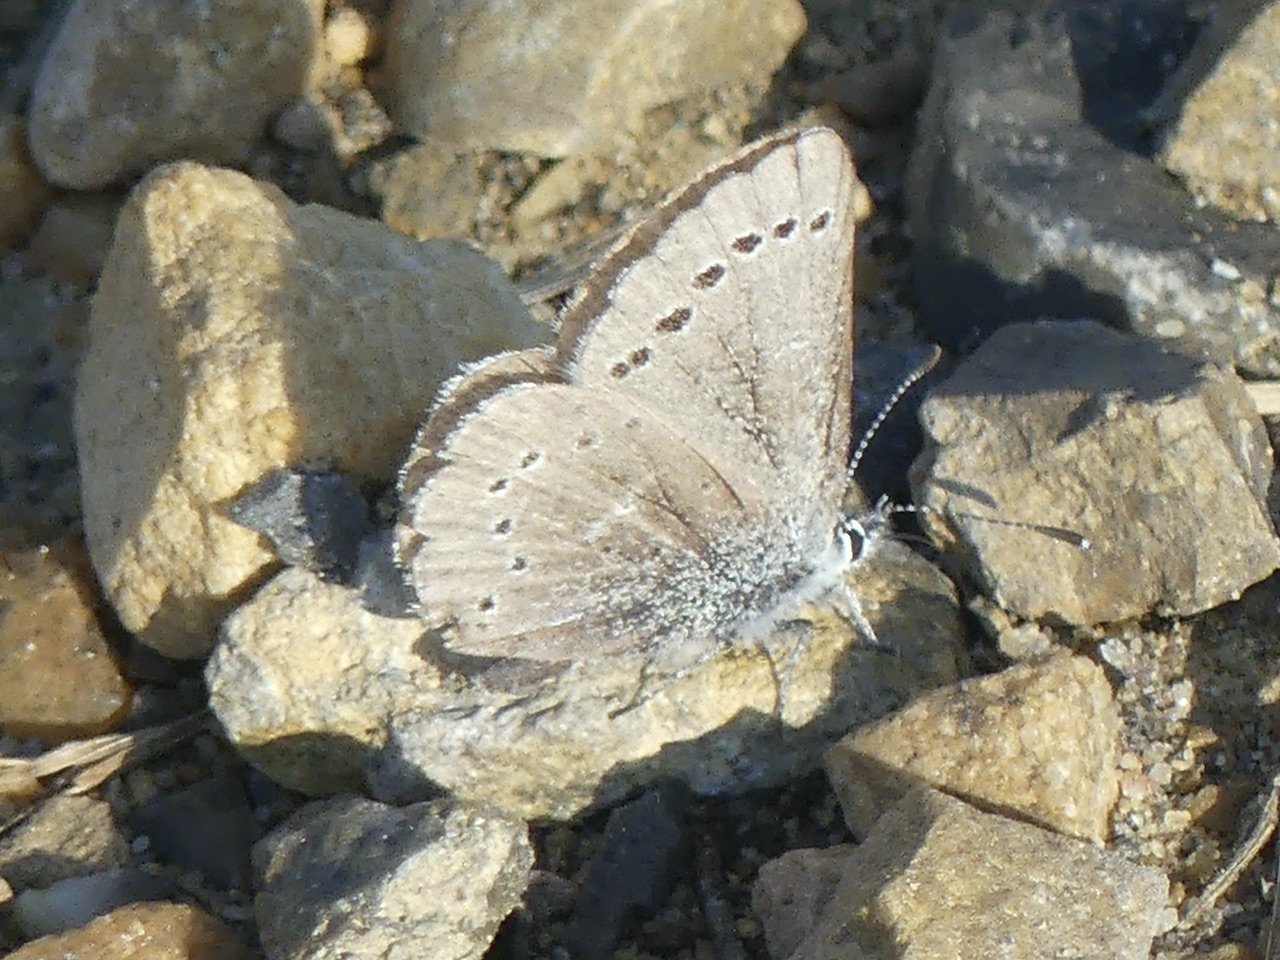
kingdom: Animalia
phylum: Arthropoda
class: Insecta
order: Lepidoptera
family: Lycaenidae
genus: Glaucopsyche
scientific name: Glaucopsyche lygdamus
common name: Silvery Blue
